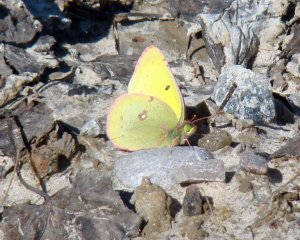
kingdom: Animalia
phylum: Arthropoda
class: Insecta
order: Lepidoptera
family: Pieridae
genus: Colias
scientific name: Colias philodice
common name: Clouded Sulphur
